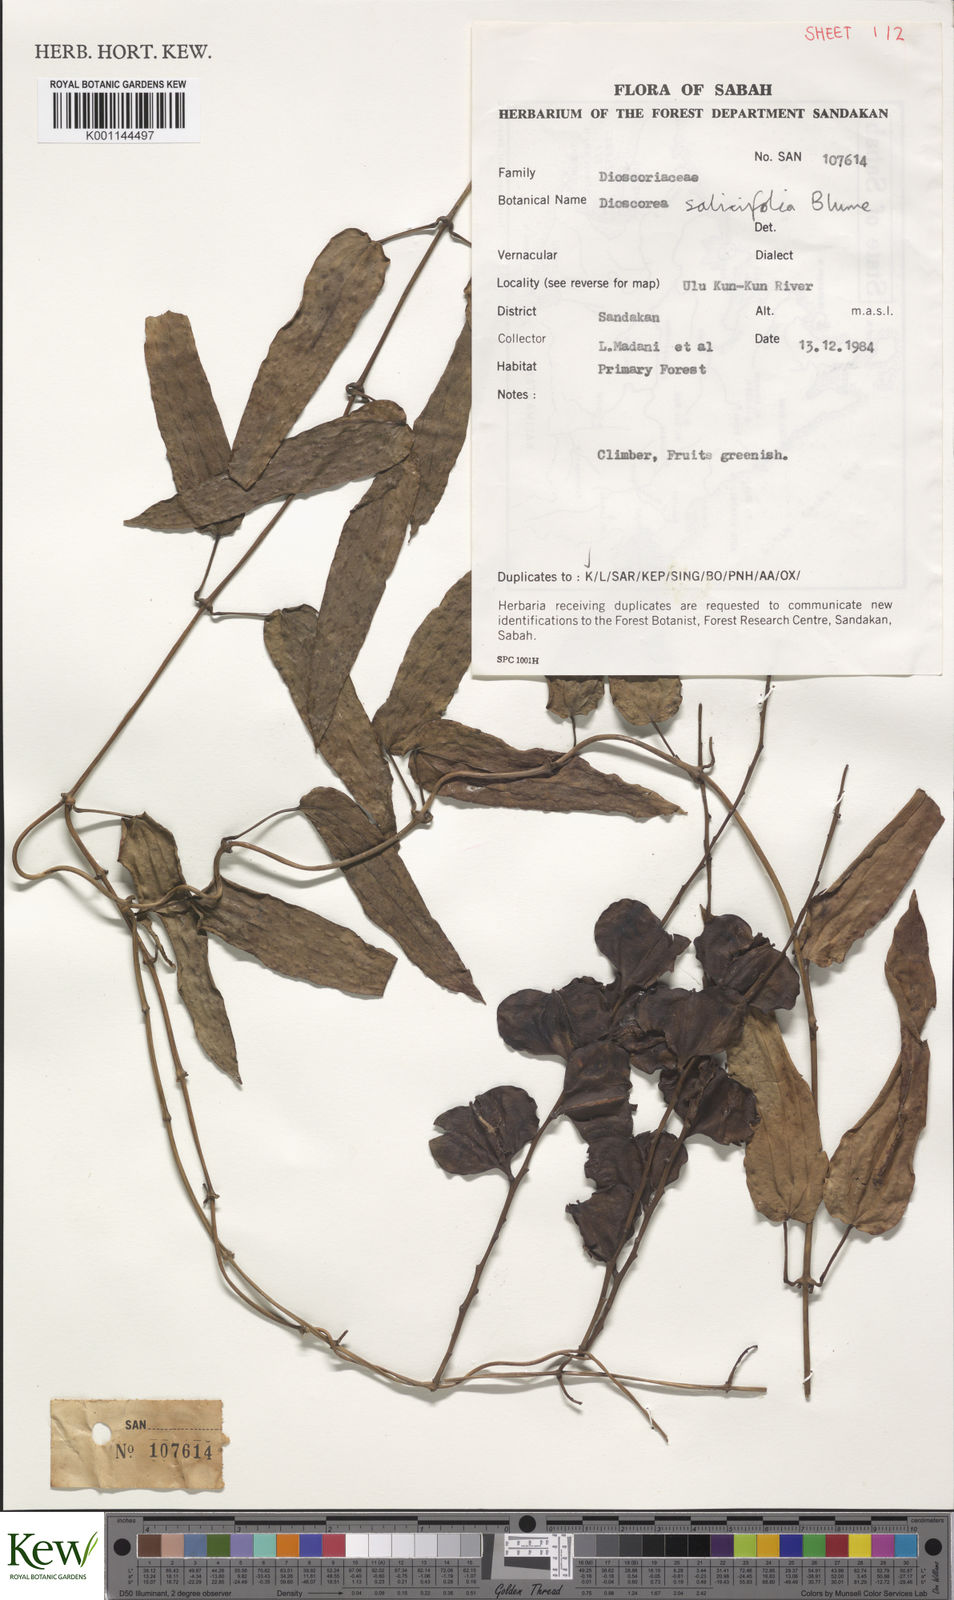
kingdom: Plantae
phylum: Tracheophyta
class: Liliopsida
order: Dioscoreales
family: Dioscoreaceae
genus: Dioscorea
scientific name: Dioscorea salicifolia
